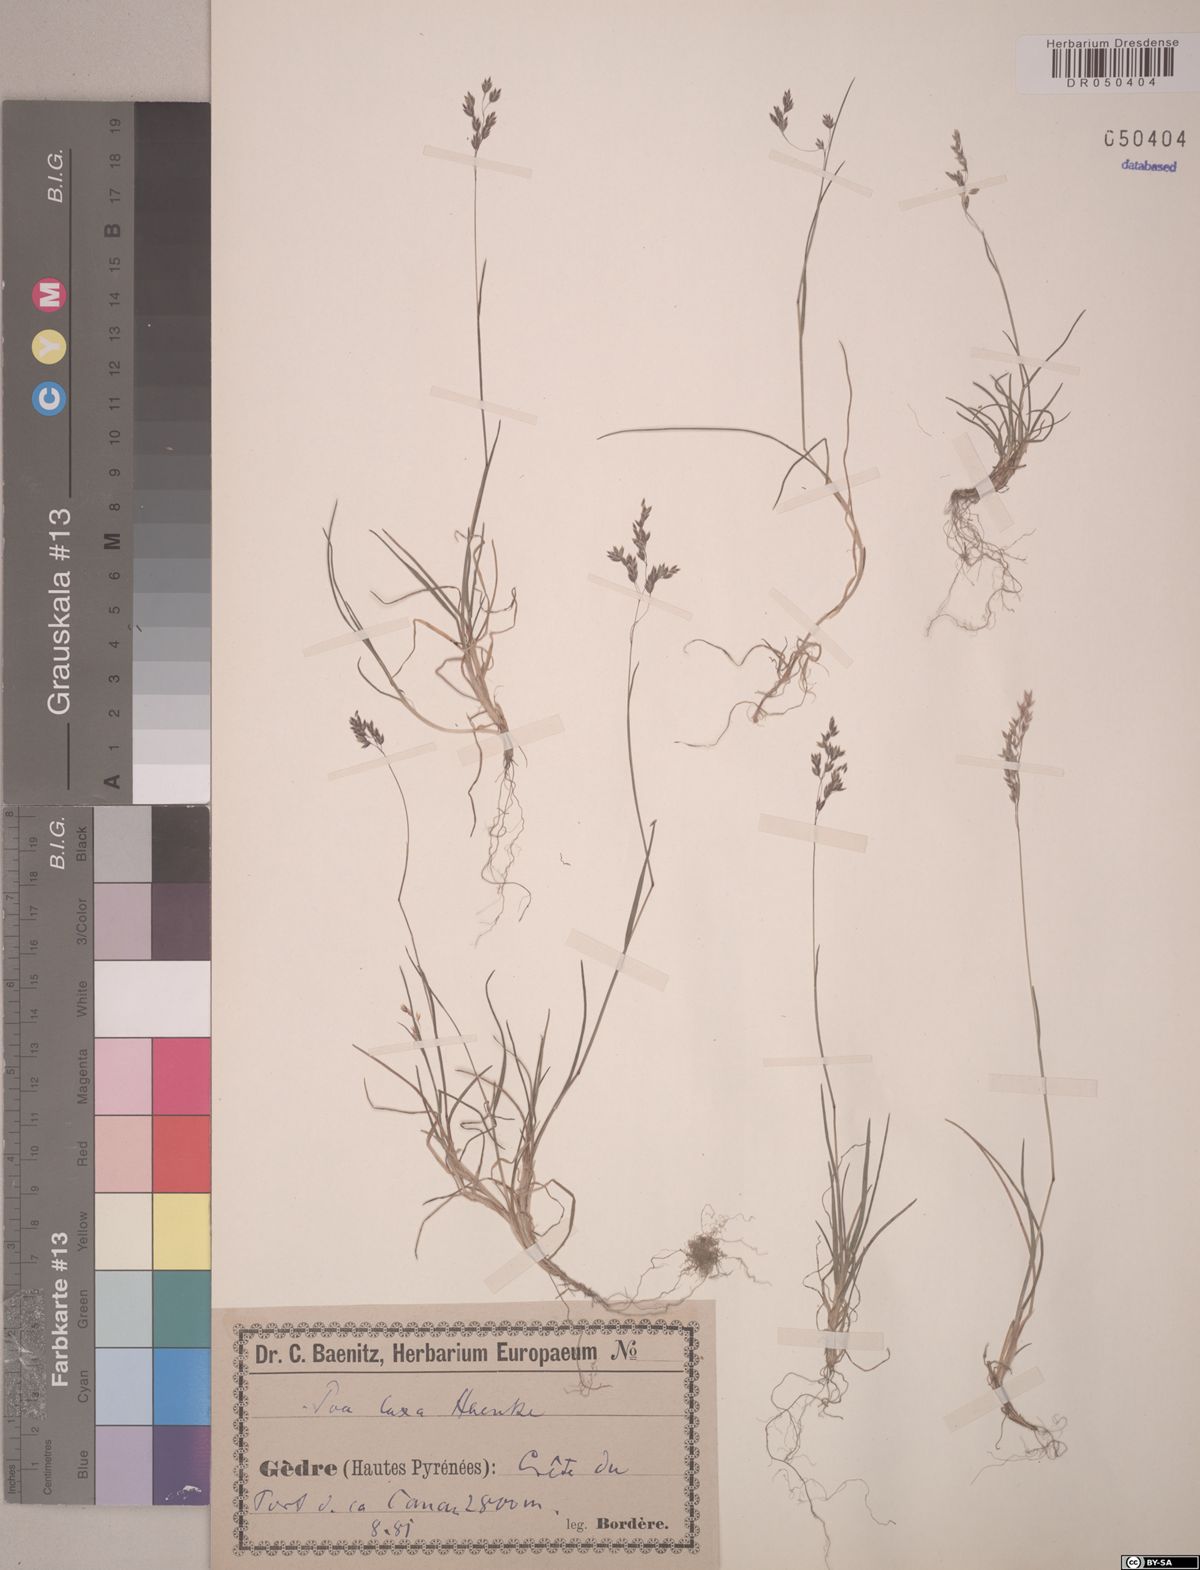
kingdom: Plantae
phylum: Tracheophyta
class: Liliopsida
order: Poales
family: Poaceae
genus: Poa
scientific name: Poa laxa
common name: Lax bluegrass
